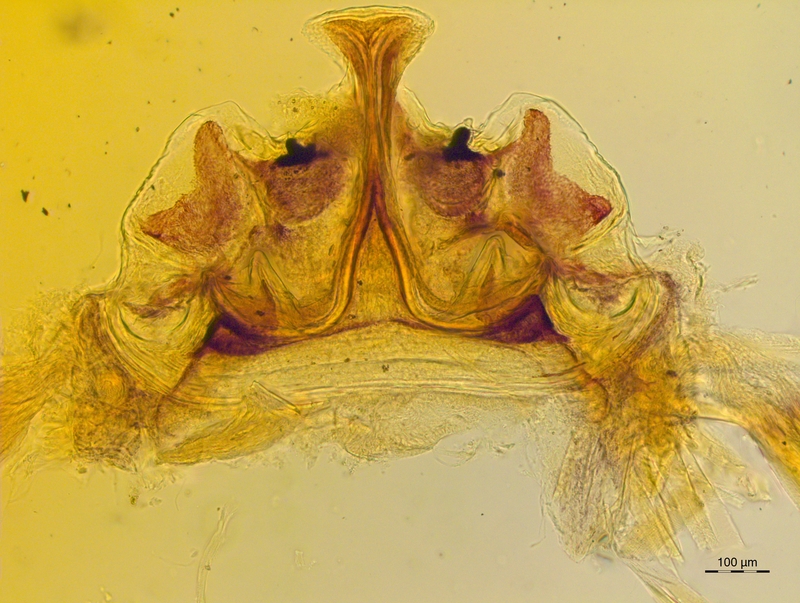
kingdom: Animalia
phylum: Arthropoda
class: Diplopoda
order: Chordeumatida
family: Craspedosomatidae
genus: Craspedosoma
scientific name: Craspedosoma slavum
